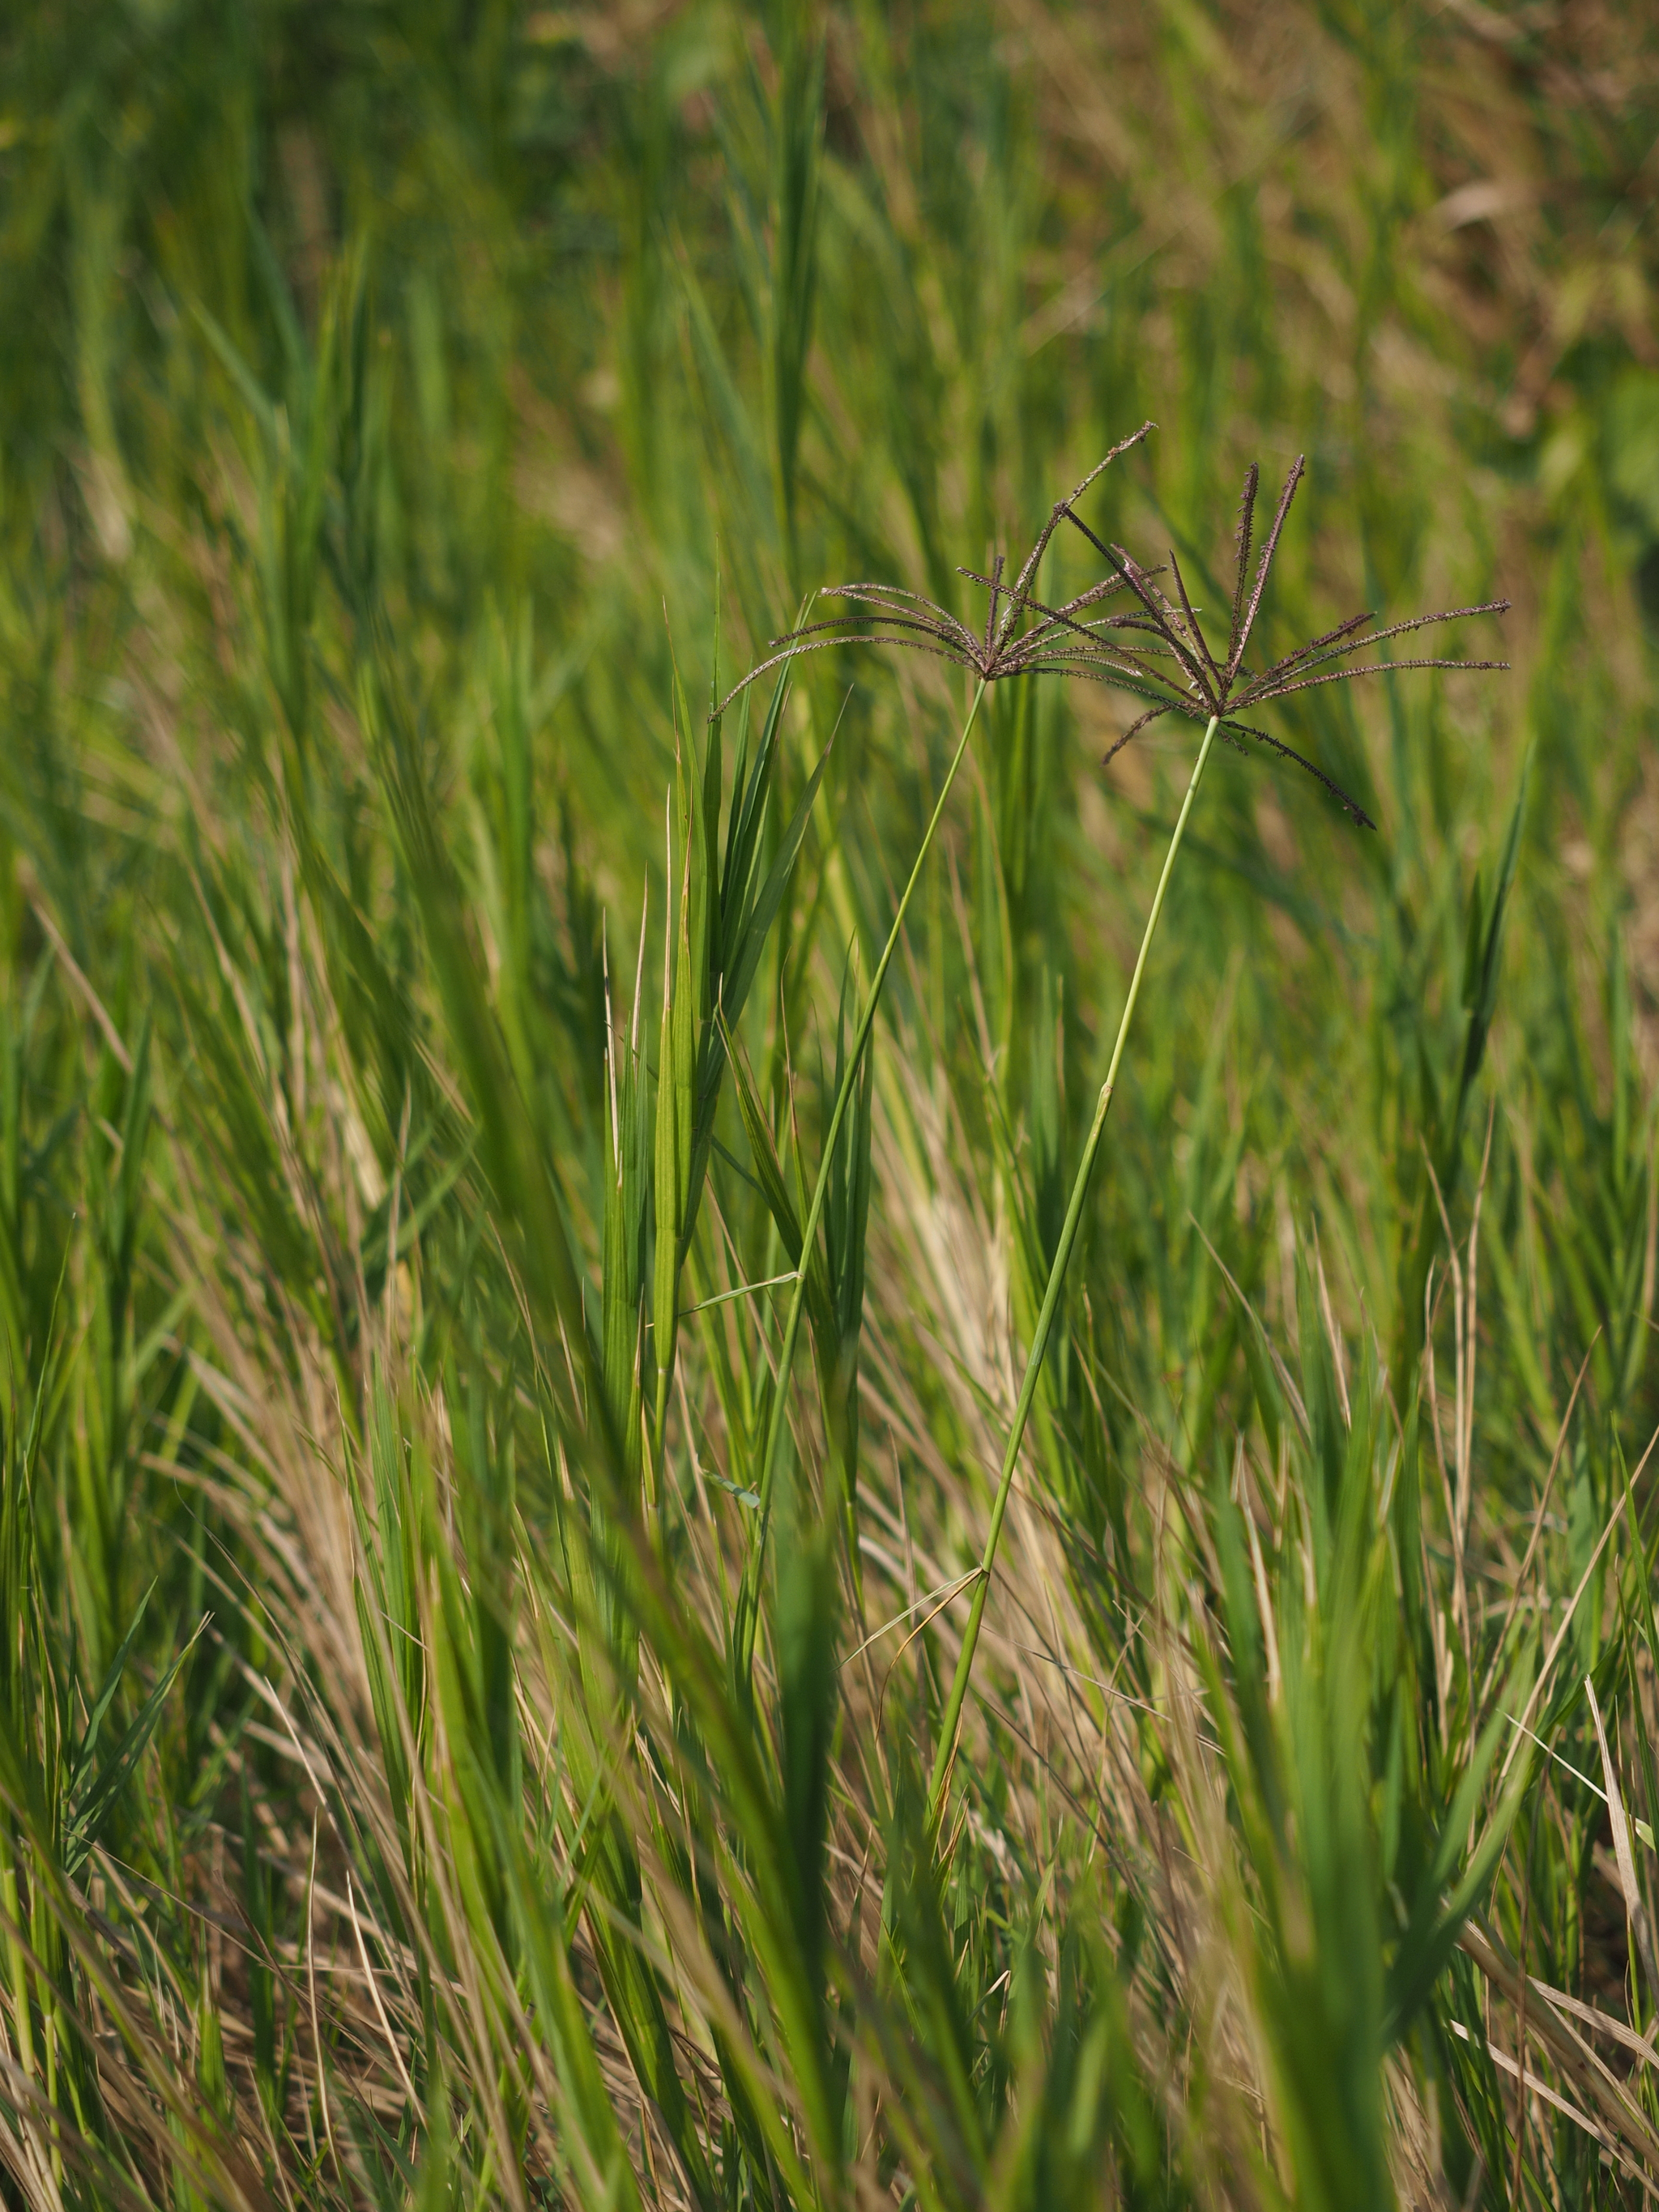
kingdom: Plantae
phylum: Tracheophyta
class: Liliopsida
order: Poales
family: Poaceae
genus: Cynodon
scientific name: Cynodon nlemfuensis
